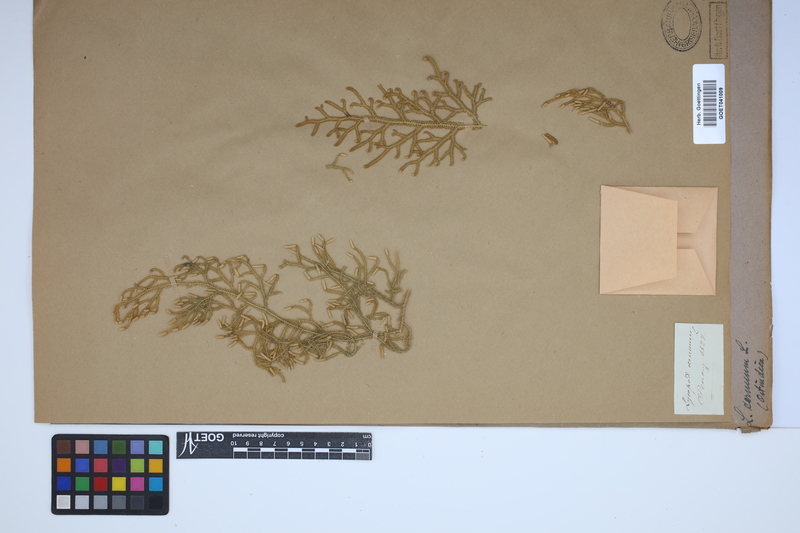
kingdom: Plantae
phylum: Tracheophyta
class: Lycopodiopsida
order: Lycopodiales
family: Lycopodiaceae
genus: Palhinhaea
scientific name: Palhinhaea cernua
